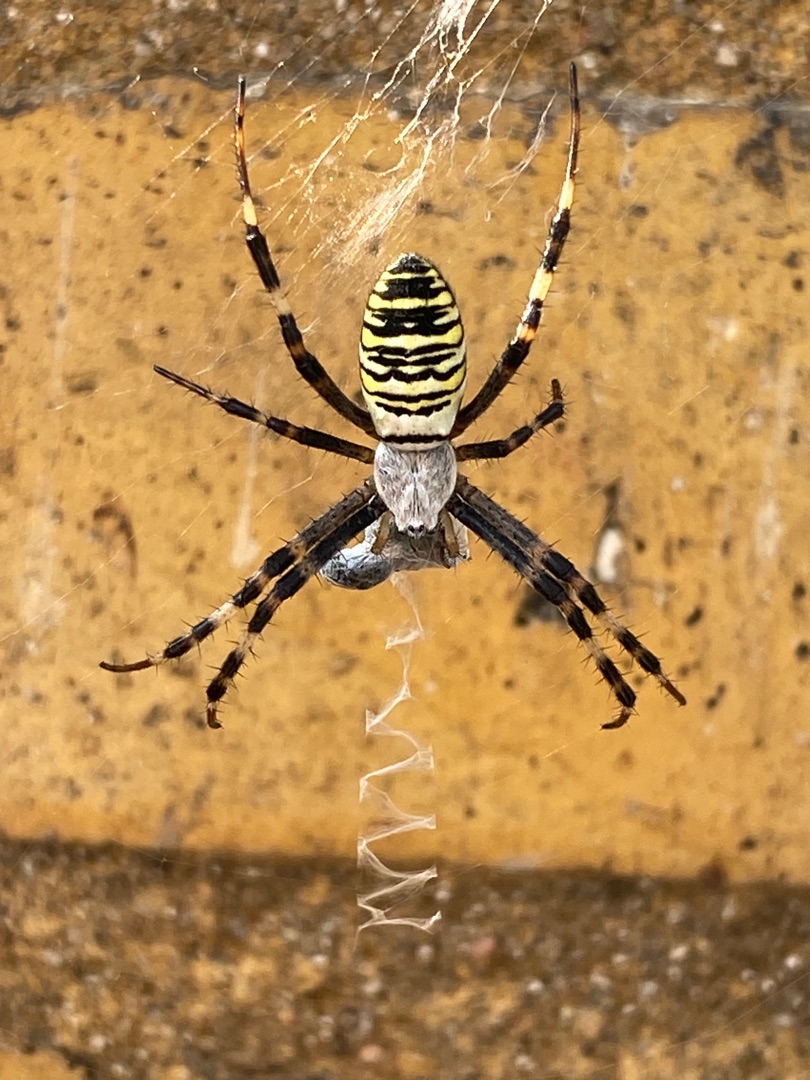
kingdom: Animalia
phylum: Arthropoda
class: Arachnida
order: Araneae
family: Araneidae
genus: Argiope
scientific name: Argiope bruennichi
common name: Hvepseedderkop
